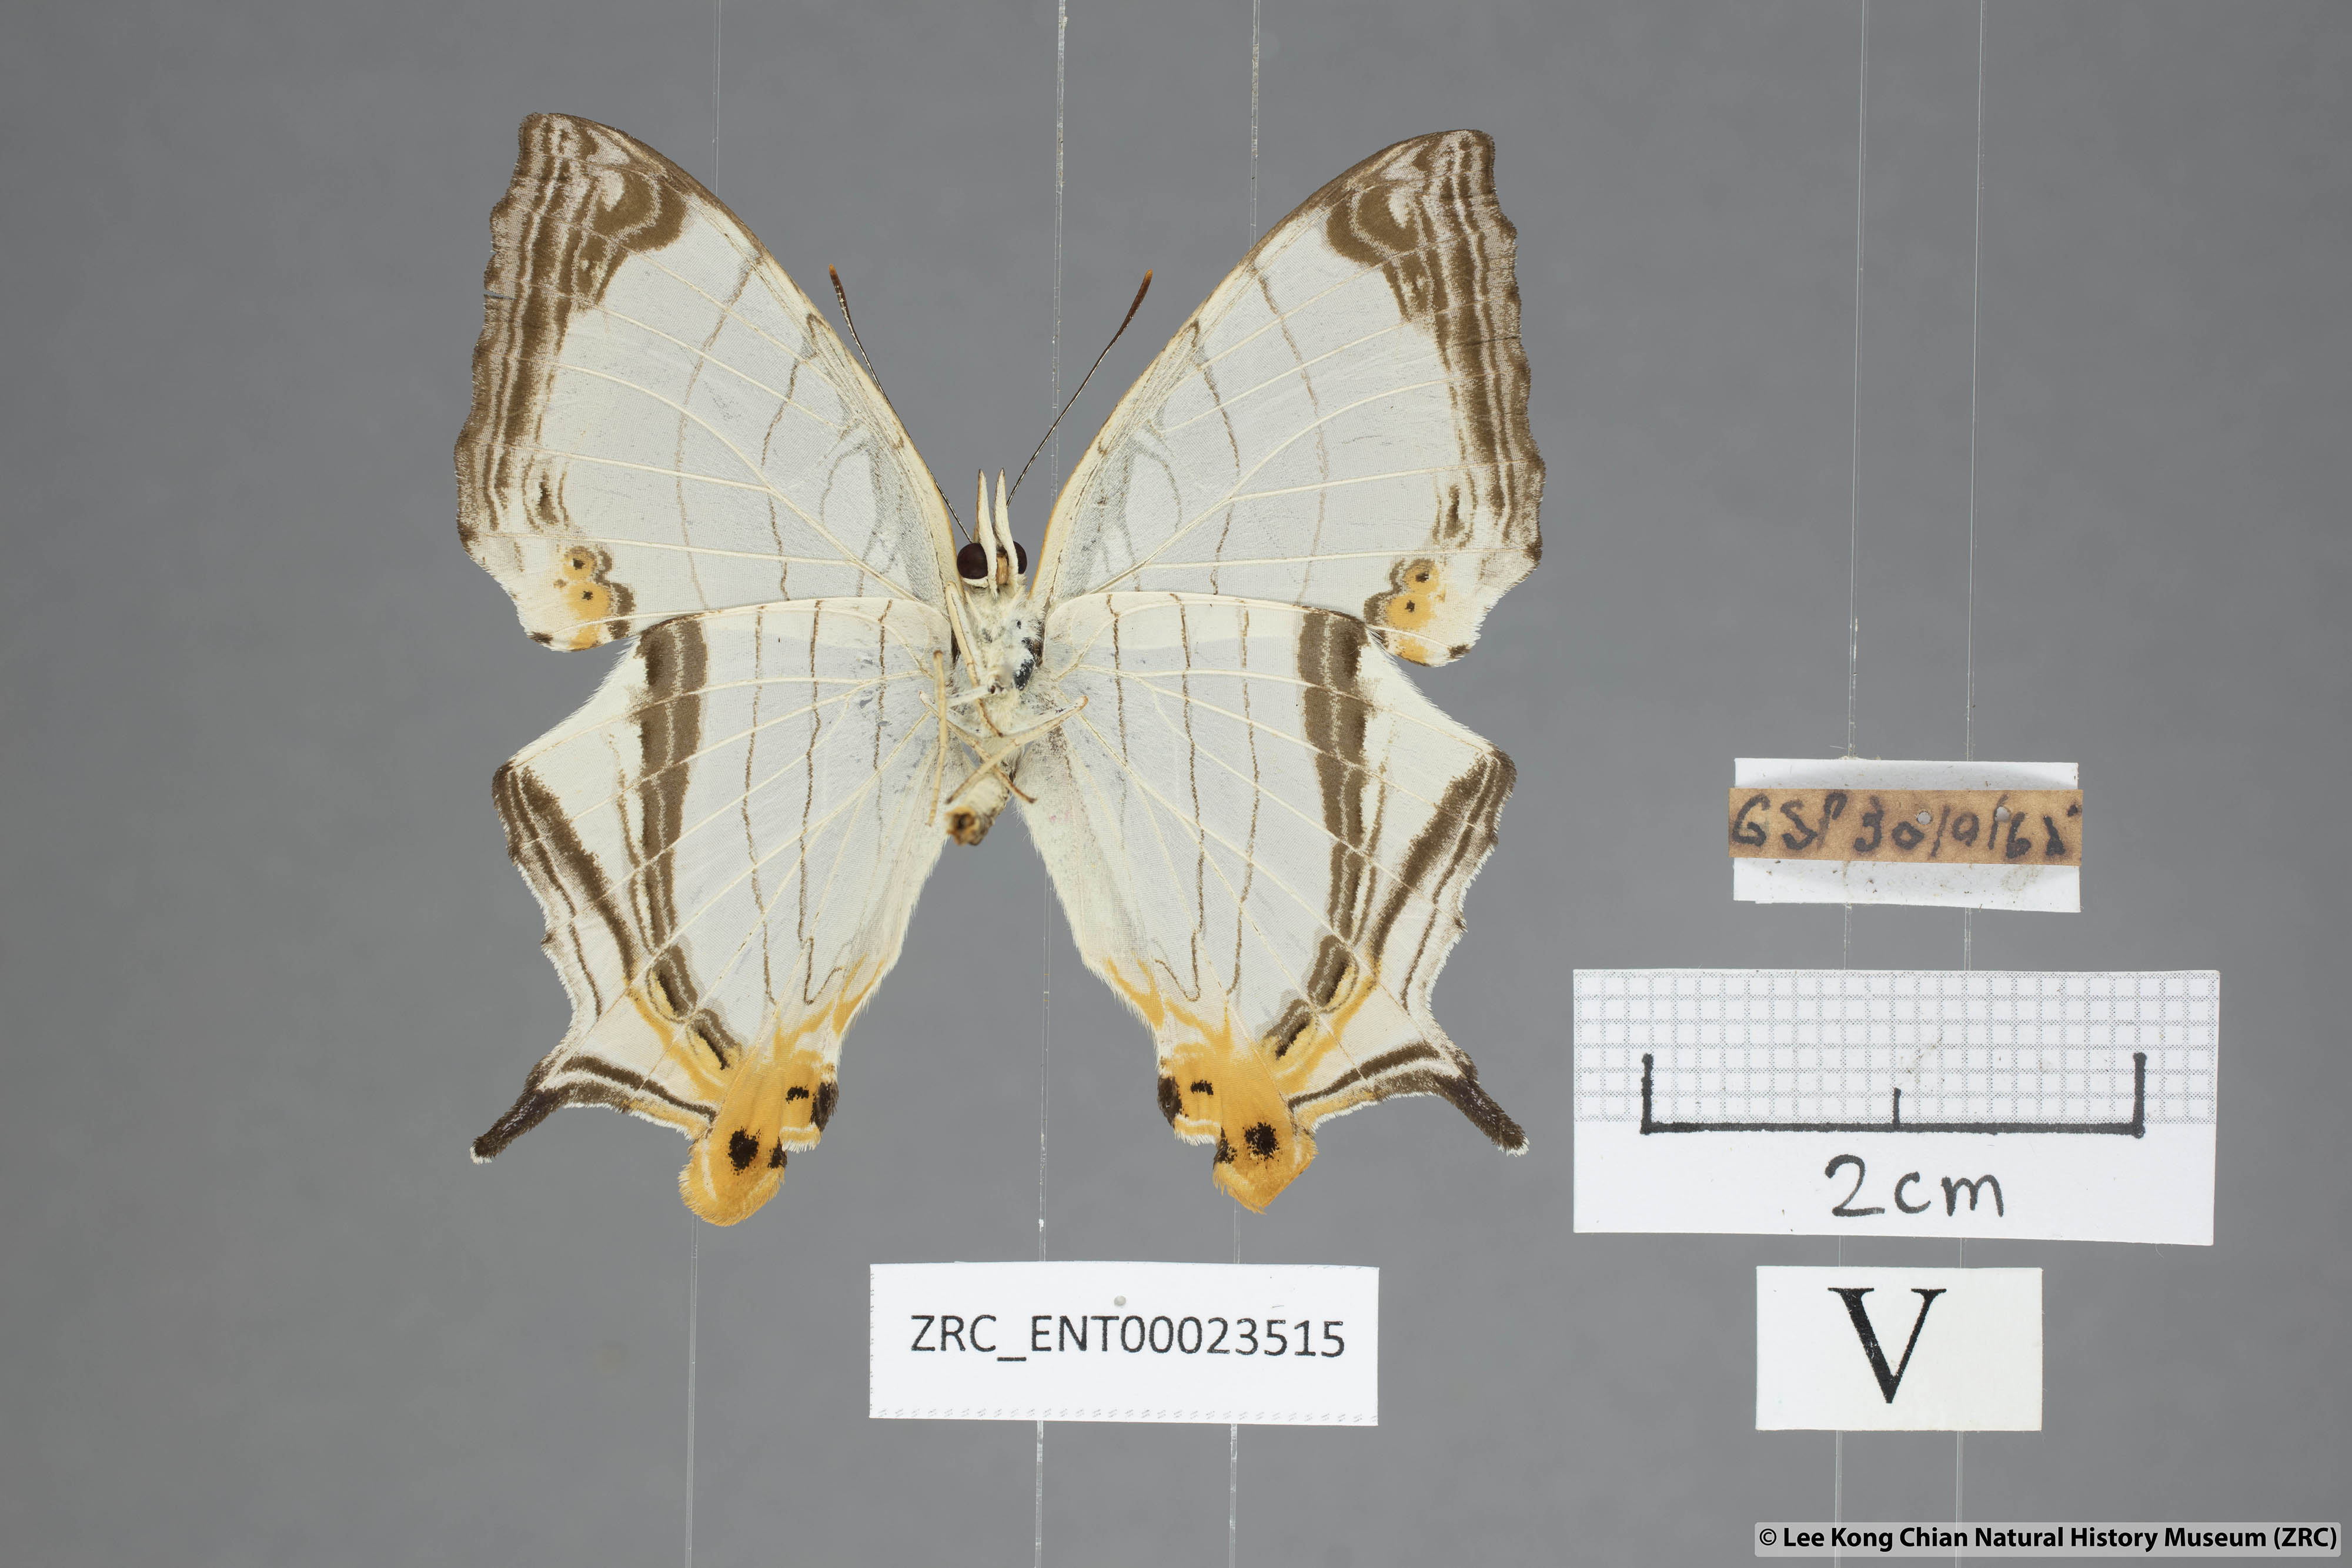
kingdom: Animalia
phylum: Arthropoda
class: Insecta
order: Lepidoptera
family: Nymphalidae
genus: Cyrestis
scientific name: Cyrestis nivea
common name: Straight line mapwing
